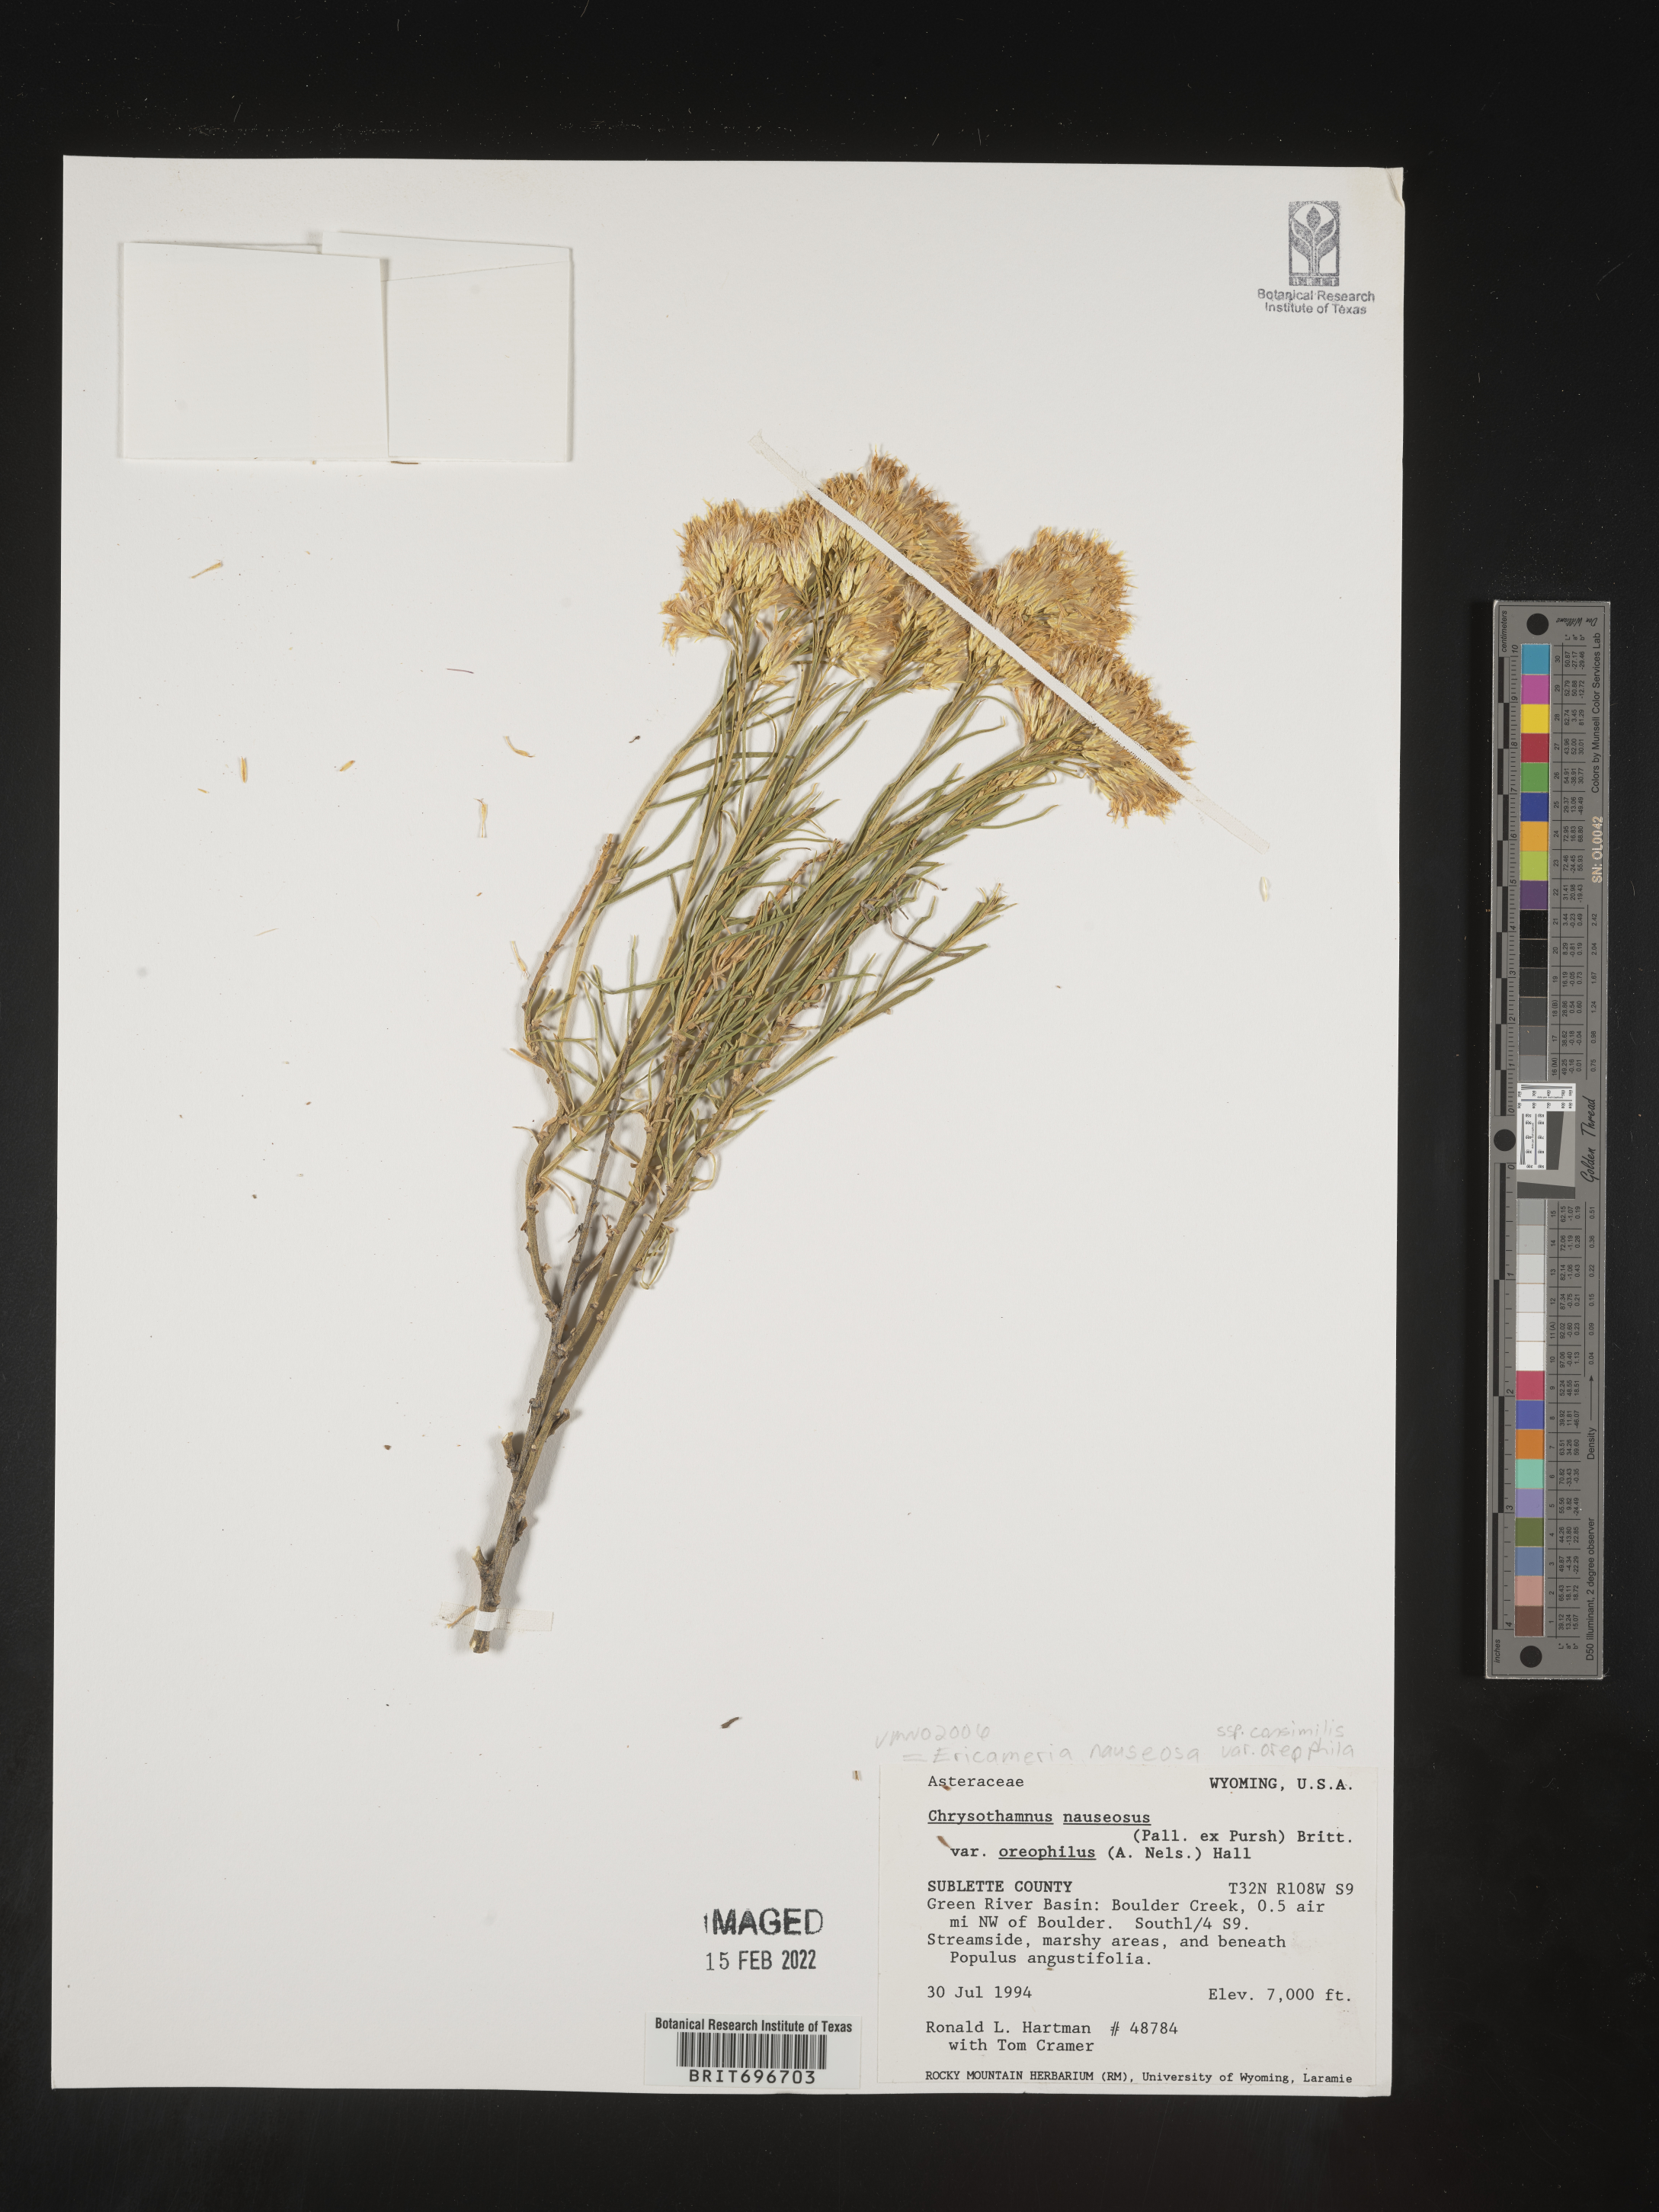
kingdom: Plantae
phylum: Tracheophyta
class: Magnoliopsida
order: Asterales
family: Asteraceae
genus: Ericameria
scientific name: Ericameria nauseosa
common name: Rubber rabbitbrush
